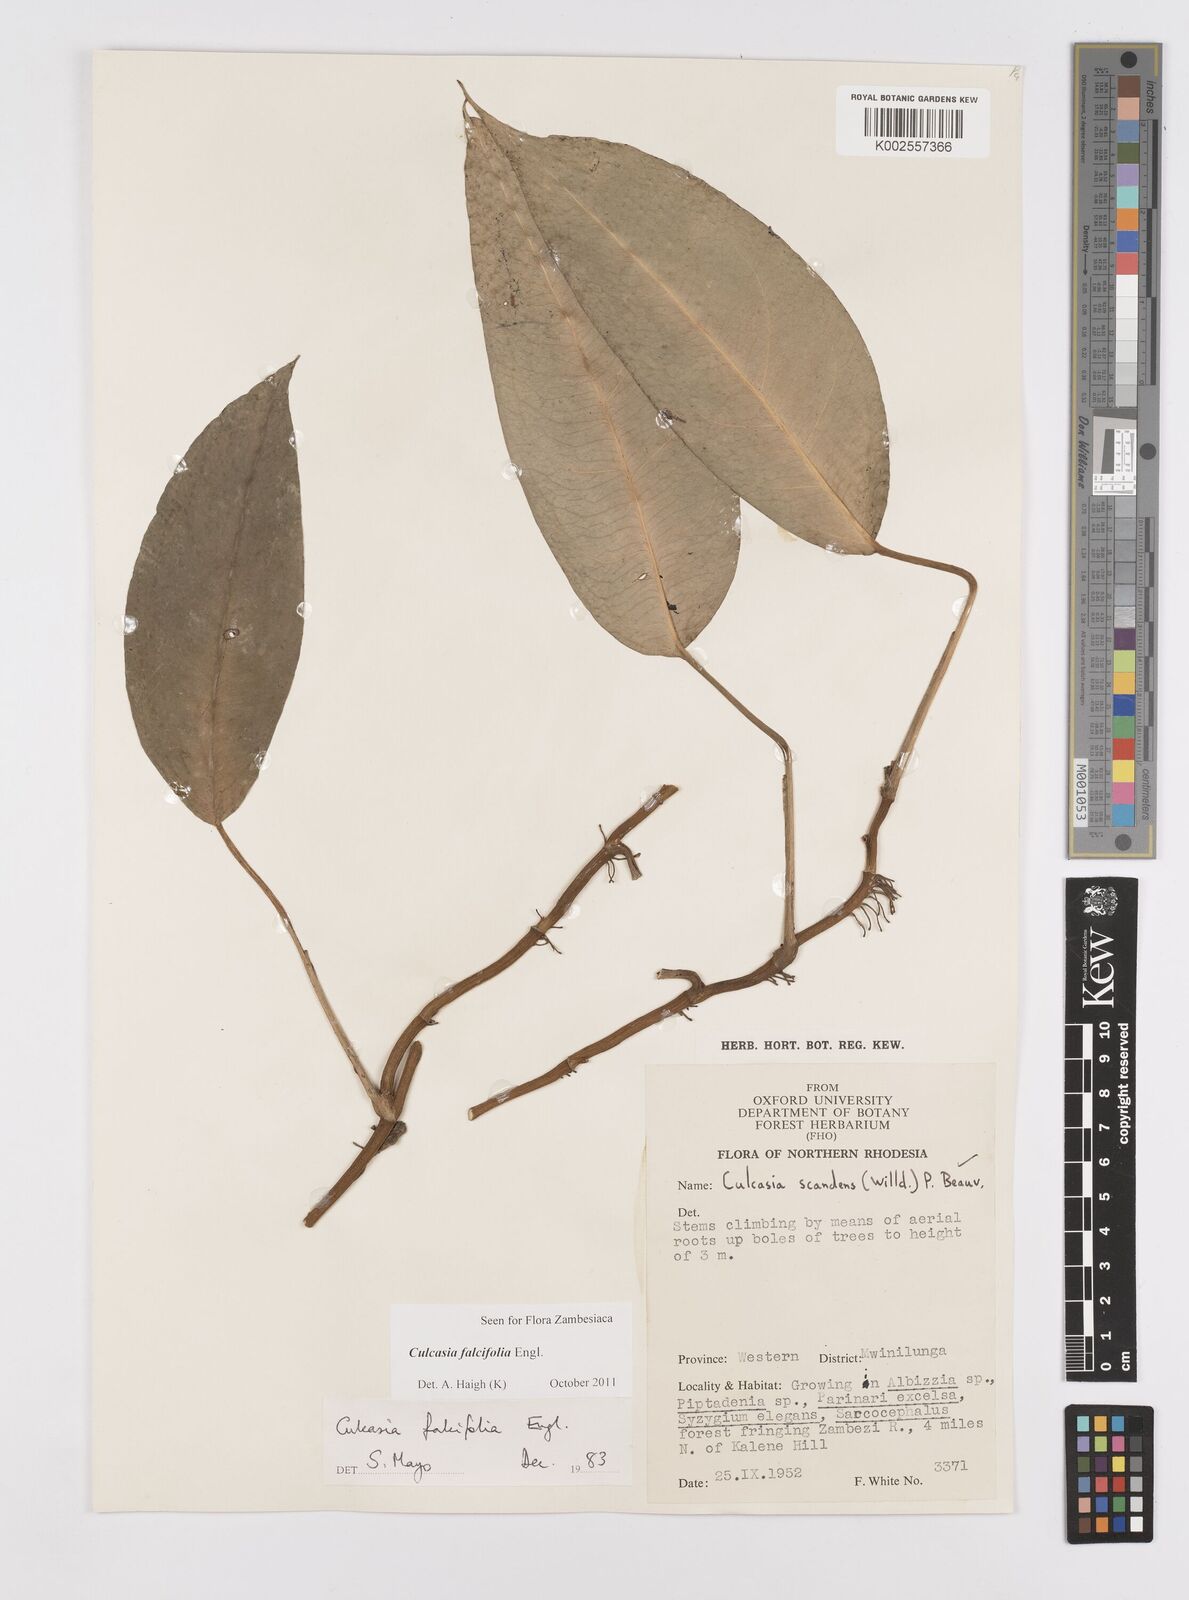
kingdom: Plantae
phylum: Tracheophyta
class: Liliopsida
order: Alismatales
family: Araceae
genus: Culcasia
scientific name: Culcasia falcifolia
